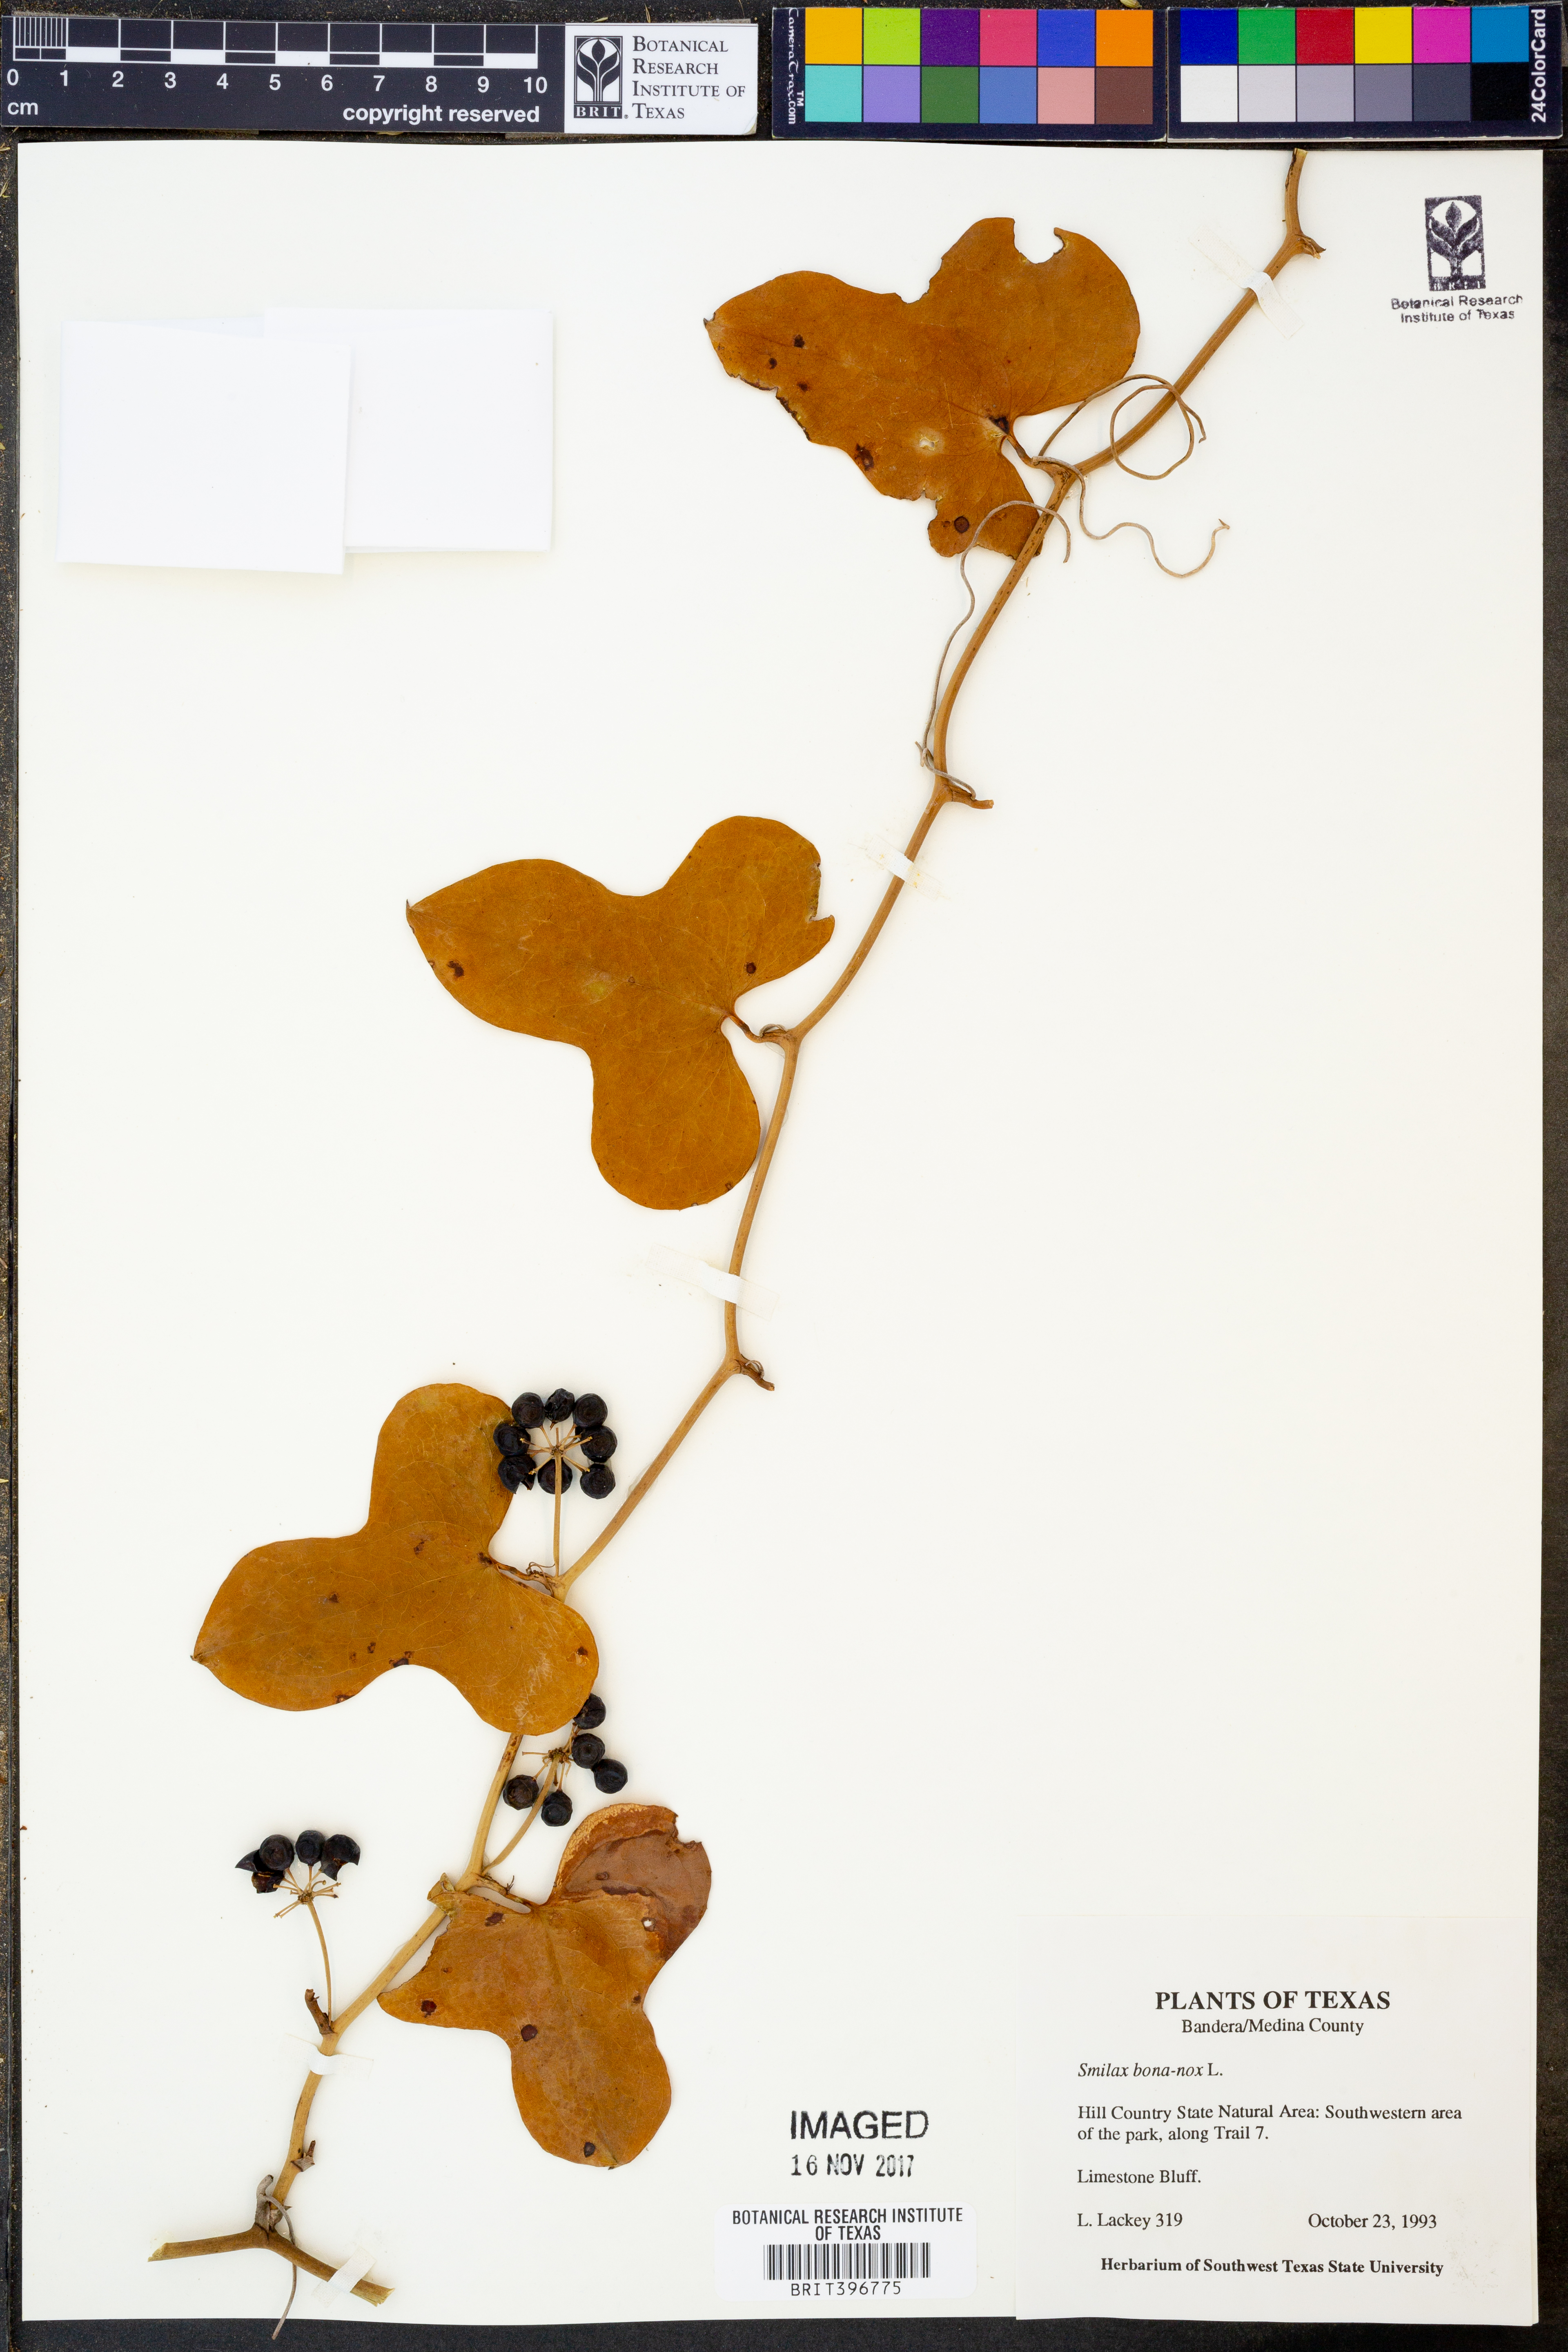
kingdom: Plantae
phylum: Tracheophyta
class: Liliopsida
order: Liliales
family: Smilacaceae
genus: Smilax
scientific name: Smilax bona-nox
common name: Catbrier
